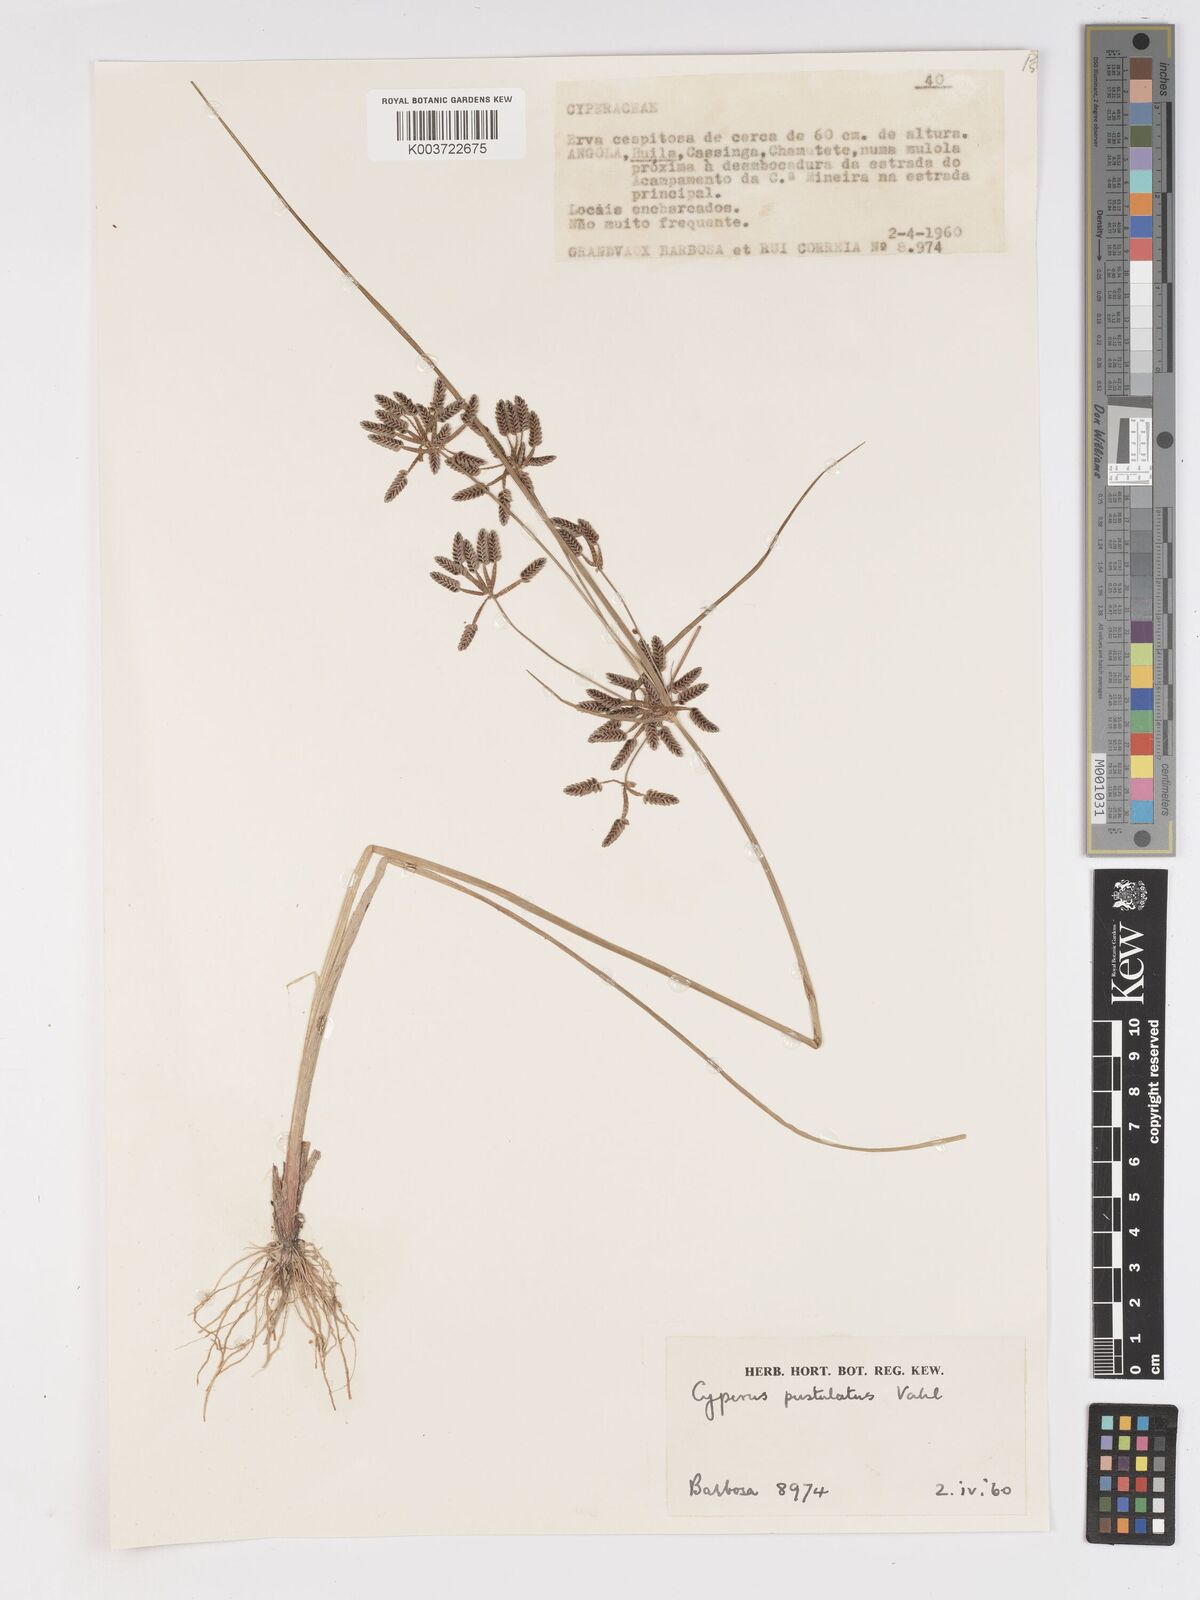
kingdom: Plantae
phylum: Tracheophyta
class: Liliopsida
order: Poales
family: Cyperaceae
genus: Cyperus
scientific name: Cyperus pustulatus
